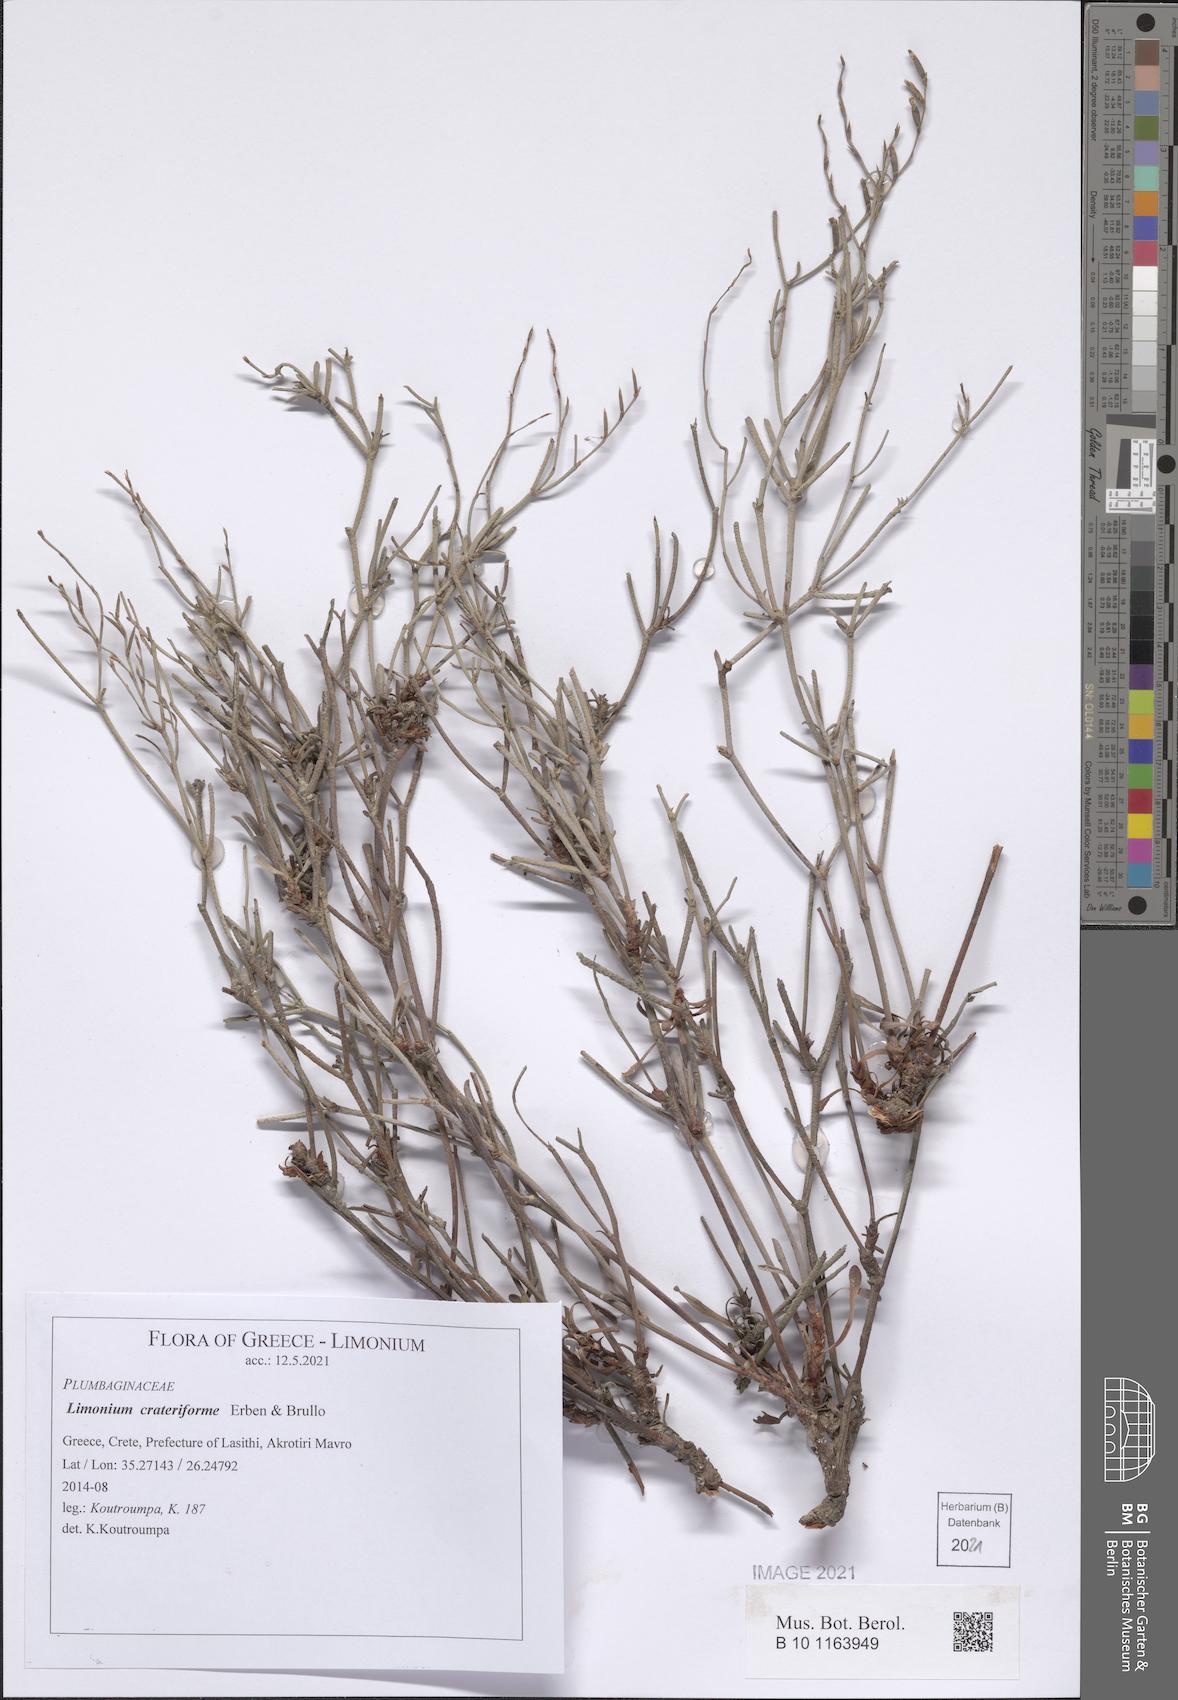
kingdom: Plantae
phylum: Tracheophyta
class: Magnoliopsida
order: Caryophyllales
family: Plumbaginaceae
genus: Limonium
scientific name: Limonium crateriforme
